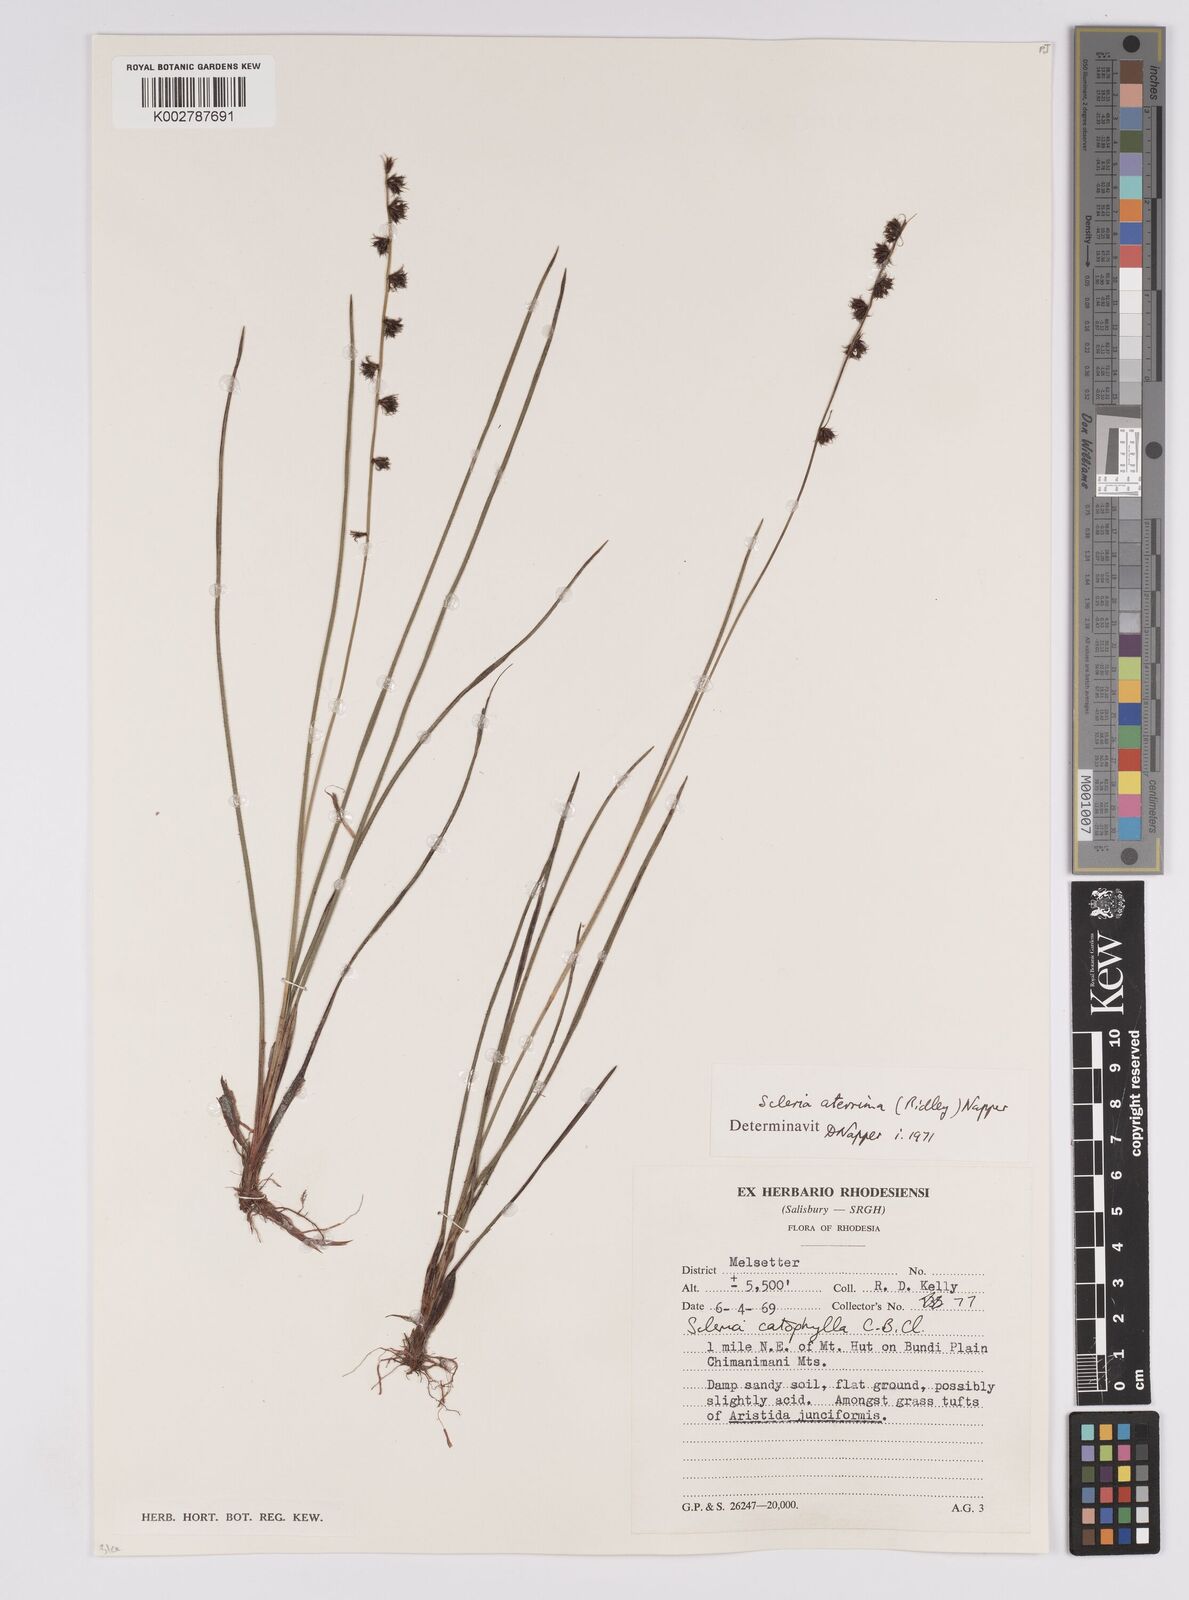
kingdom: Plantae
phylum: Tracheophyta
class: Liliopsida
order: Poales
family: Cyperaceae
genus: Scleria
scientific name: Scleria catophylla
